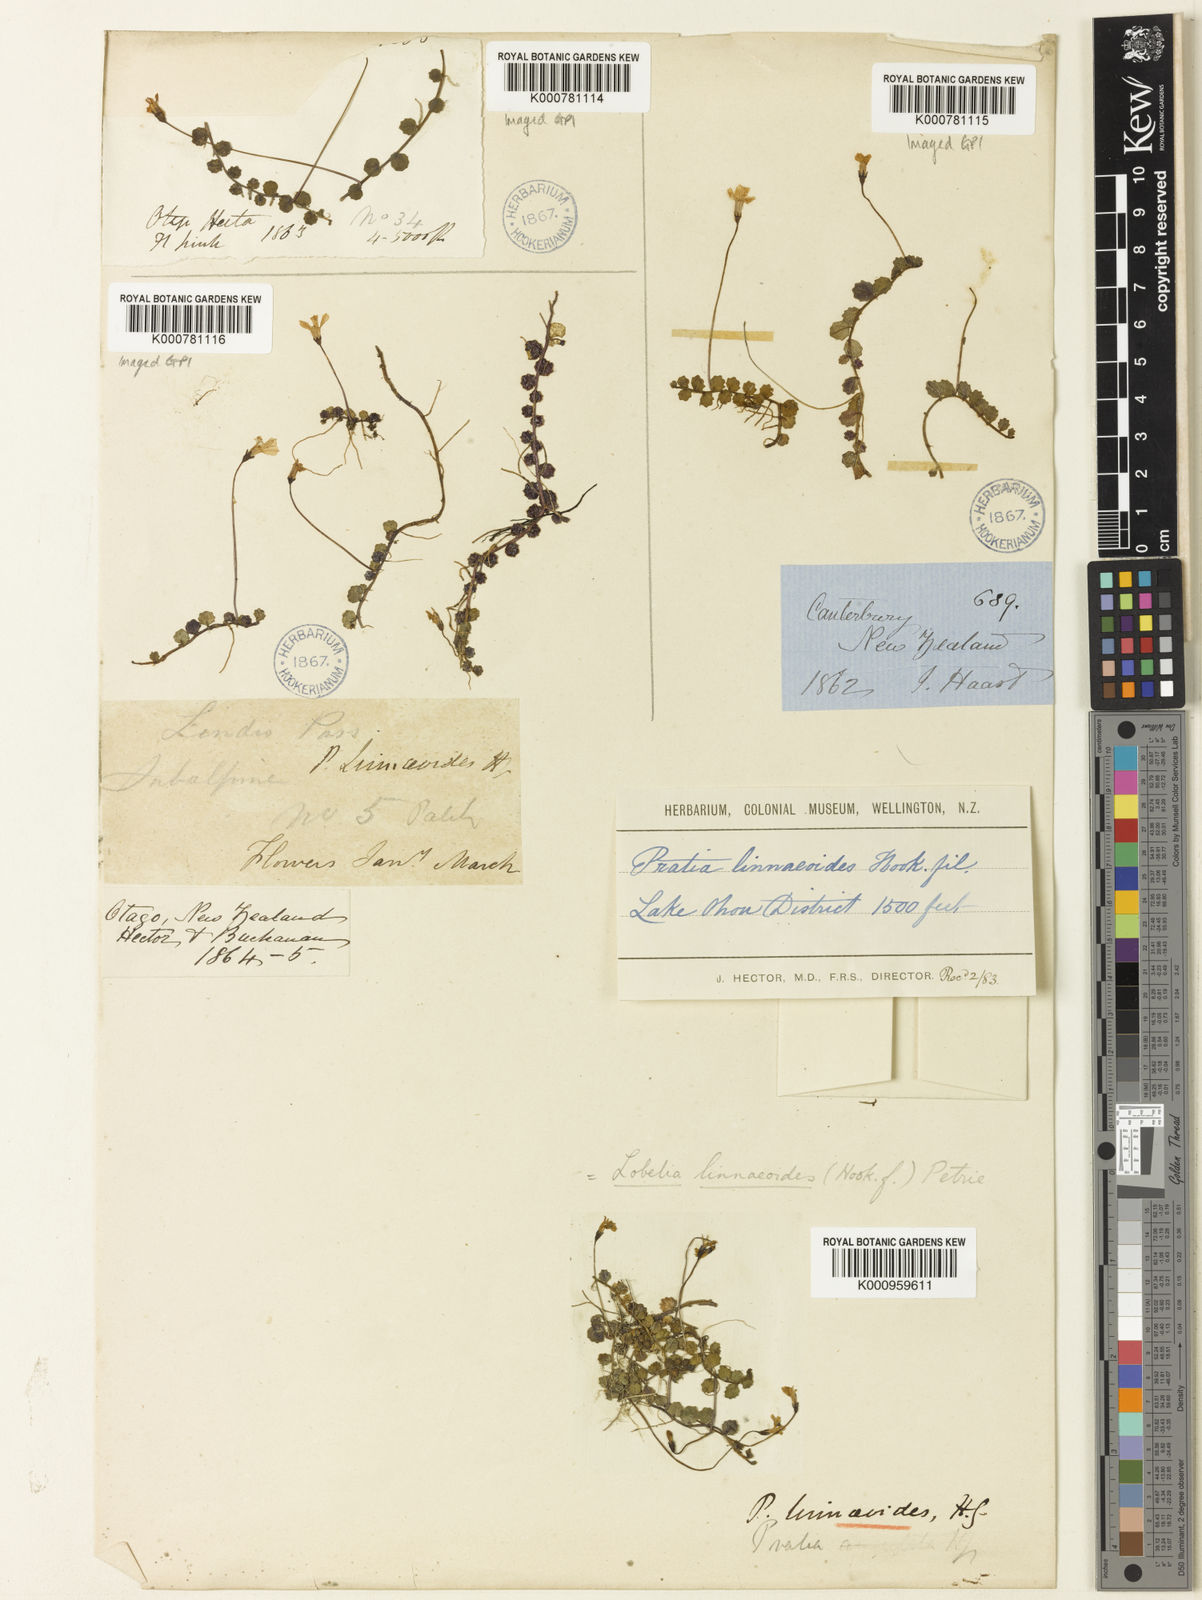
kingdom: Plantae
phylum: Tracheophyta
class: Magnoliopsida
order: Asterales
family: Campanulaceae
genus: Lobelia
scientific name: Lobelia angulata
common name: Lawn lobelia
